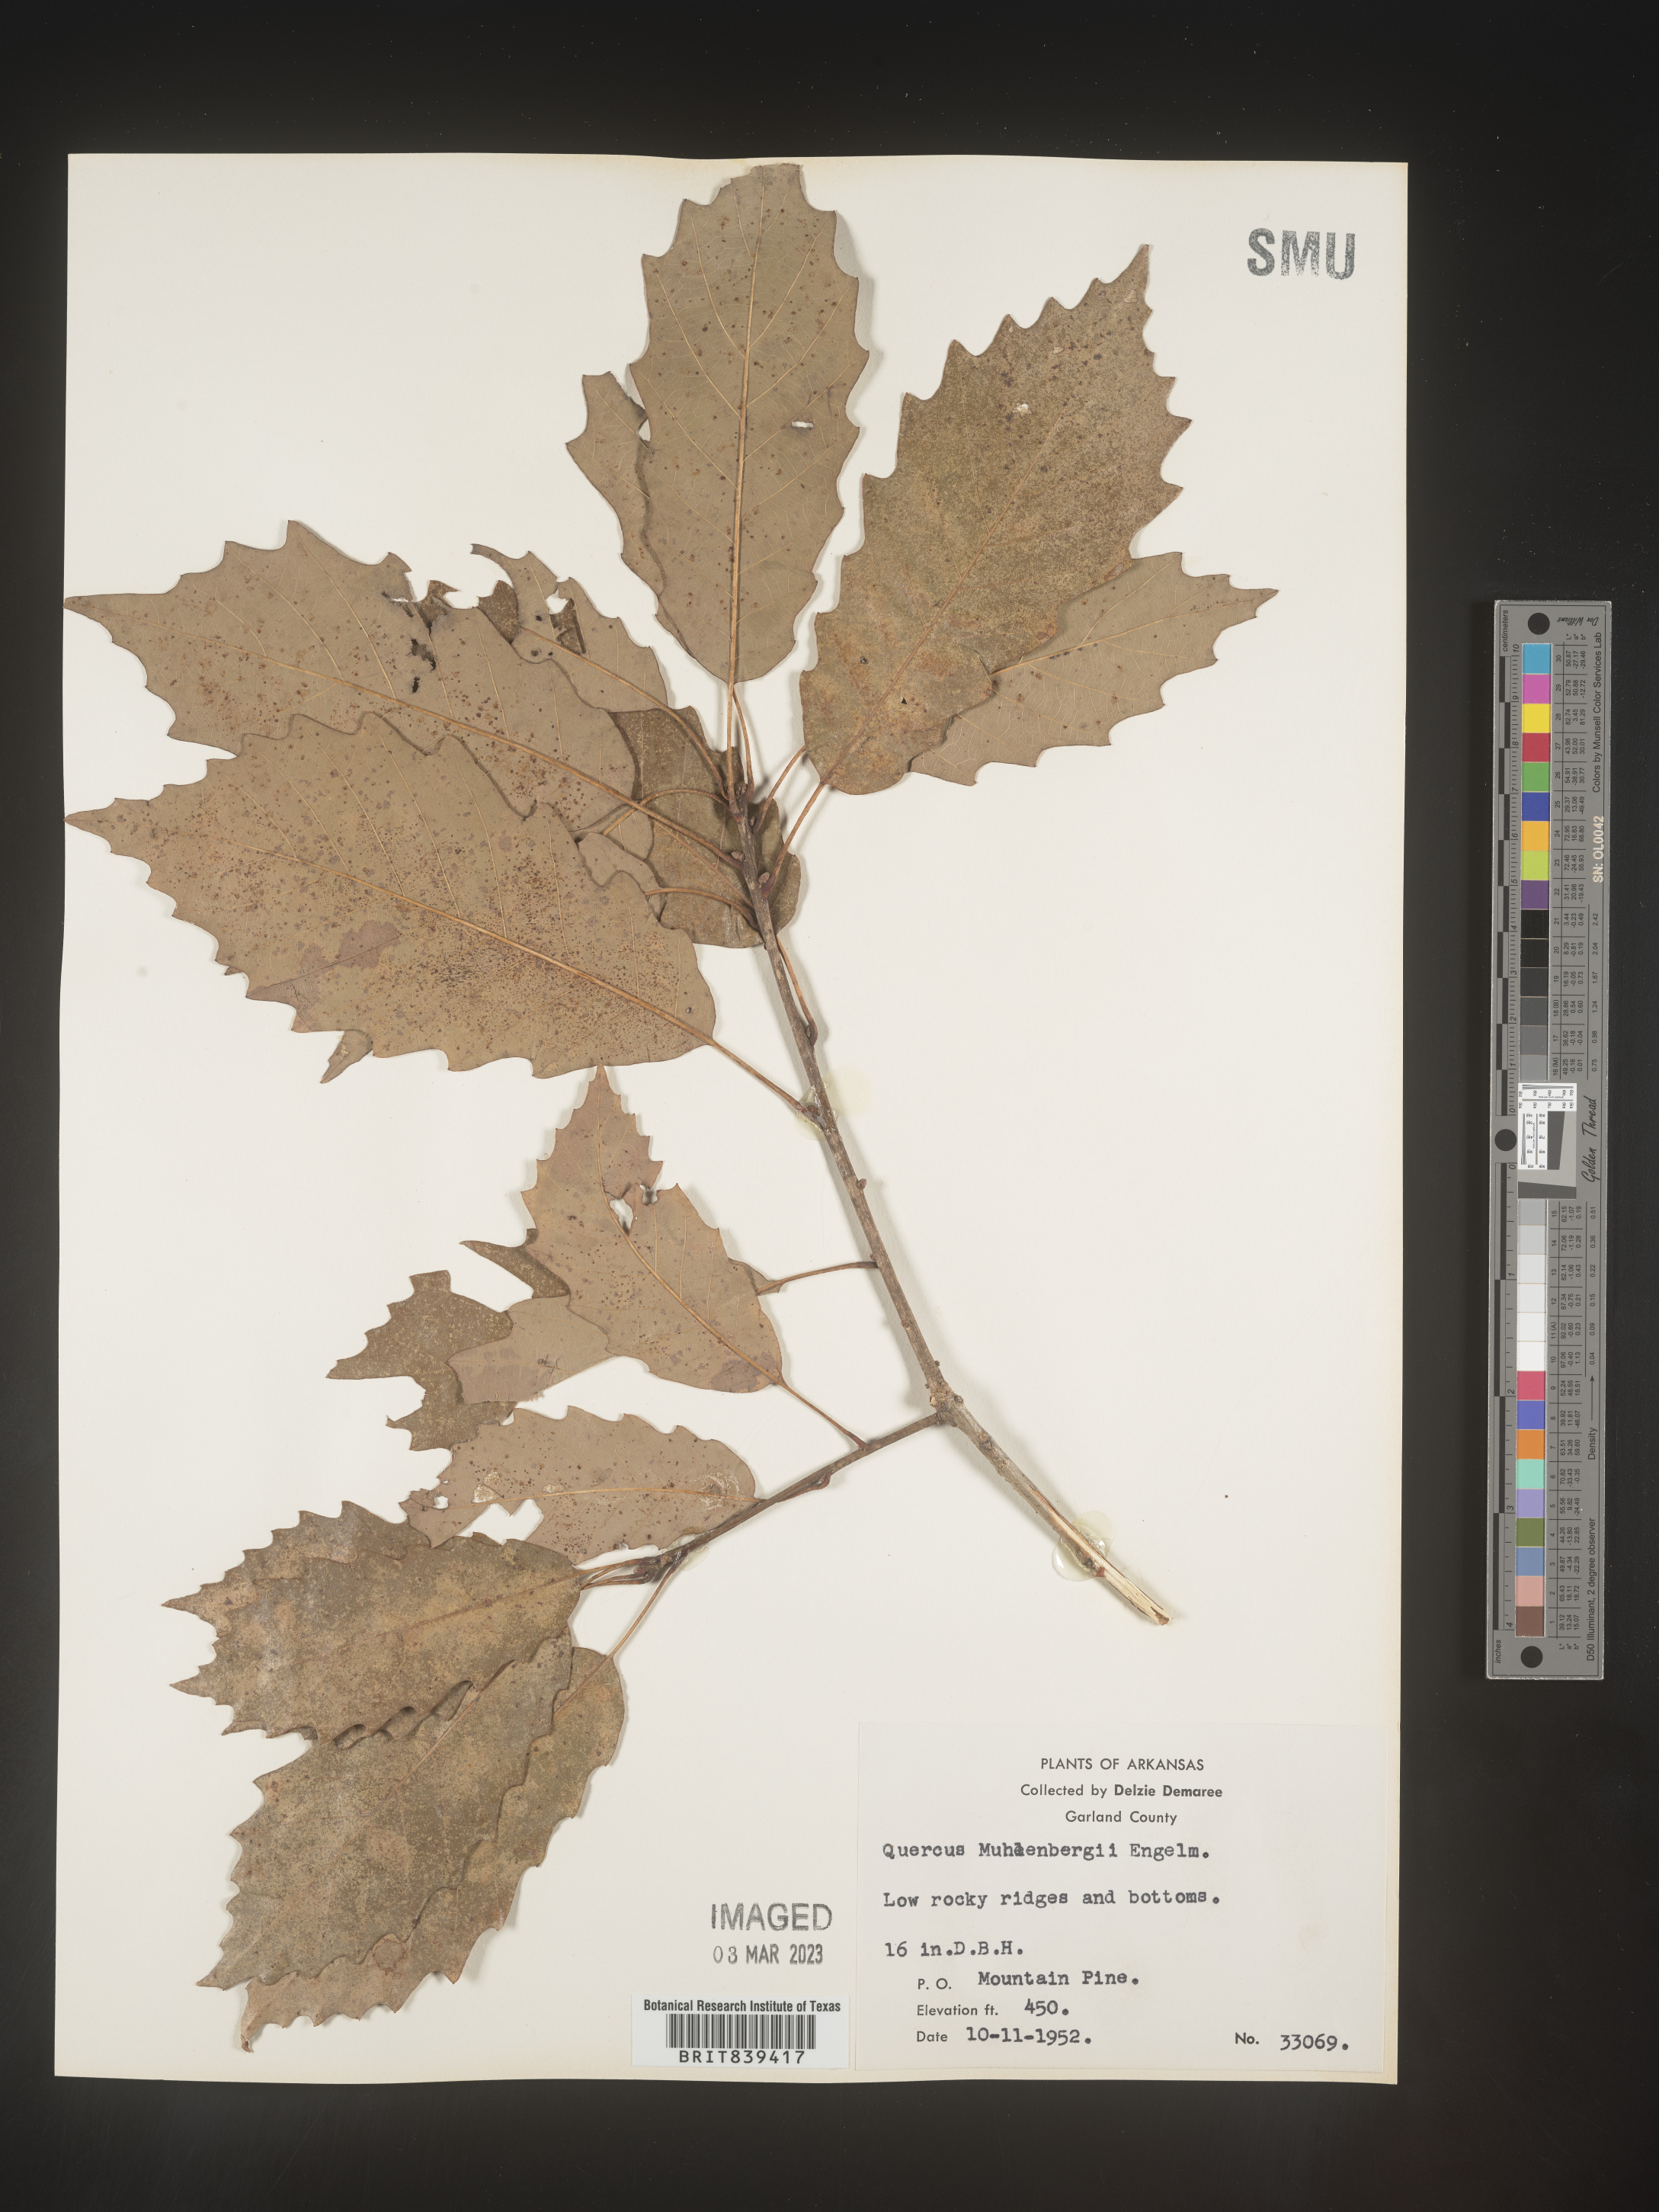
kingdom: Plantae
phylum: Tracheophyta
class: Magnoliopsida
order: Fagales
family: Fagaceae
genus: Quercus
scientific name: Quercus muehlenbergii
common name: Chinkapin oak
